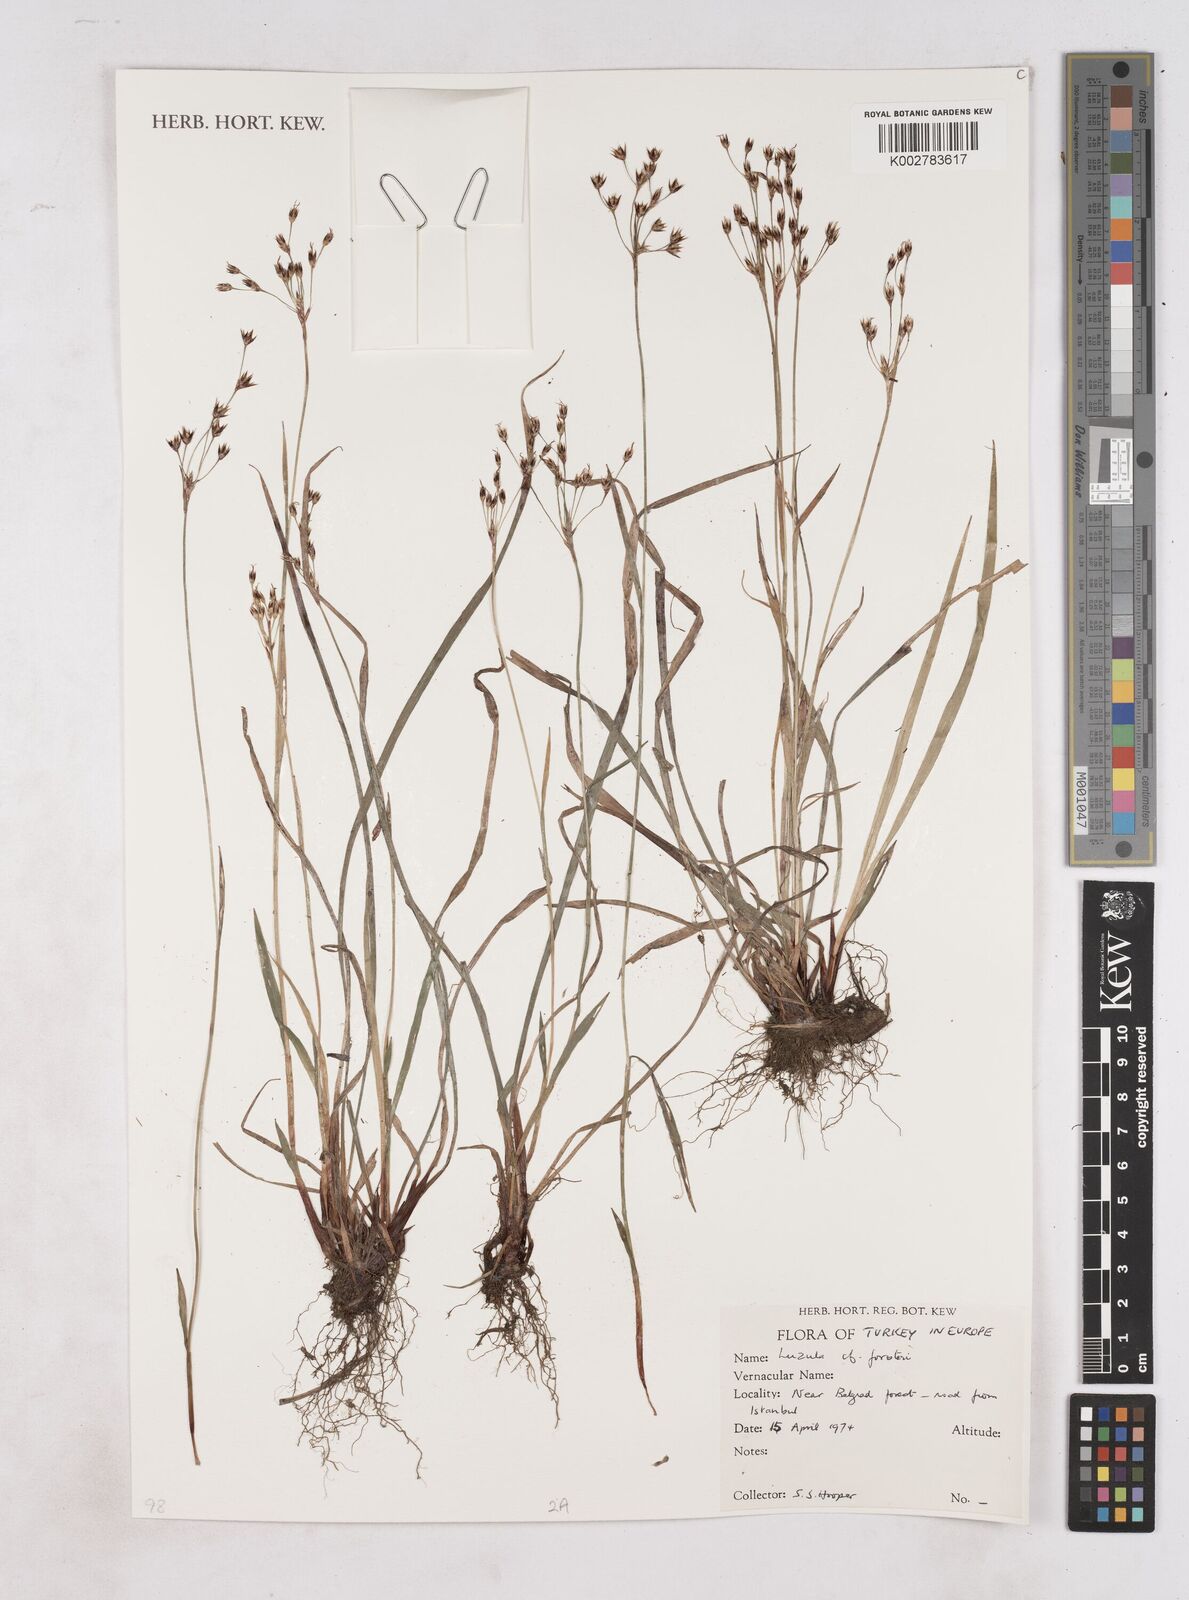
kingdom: Plantae
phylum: Tracheophyta
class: Liliopsida
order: Poales
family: Juncaceae
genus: Luzula
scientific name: Luzula forsteri
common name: Southern wood-rush
